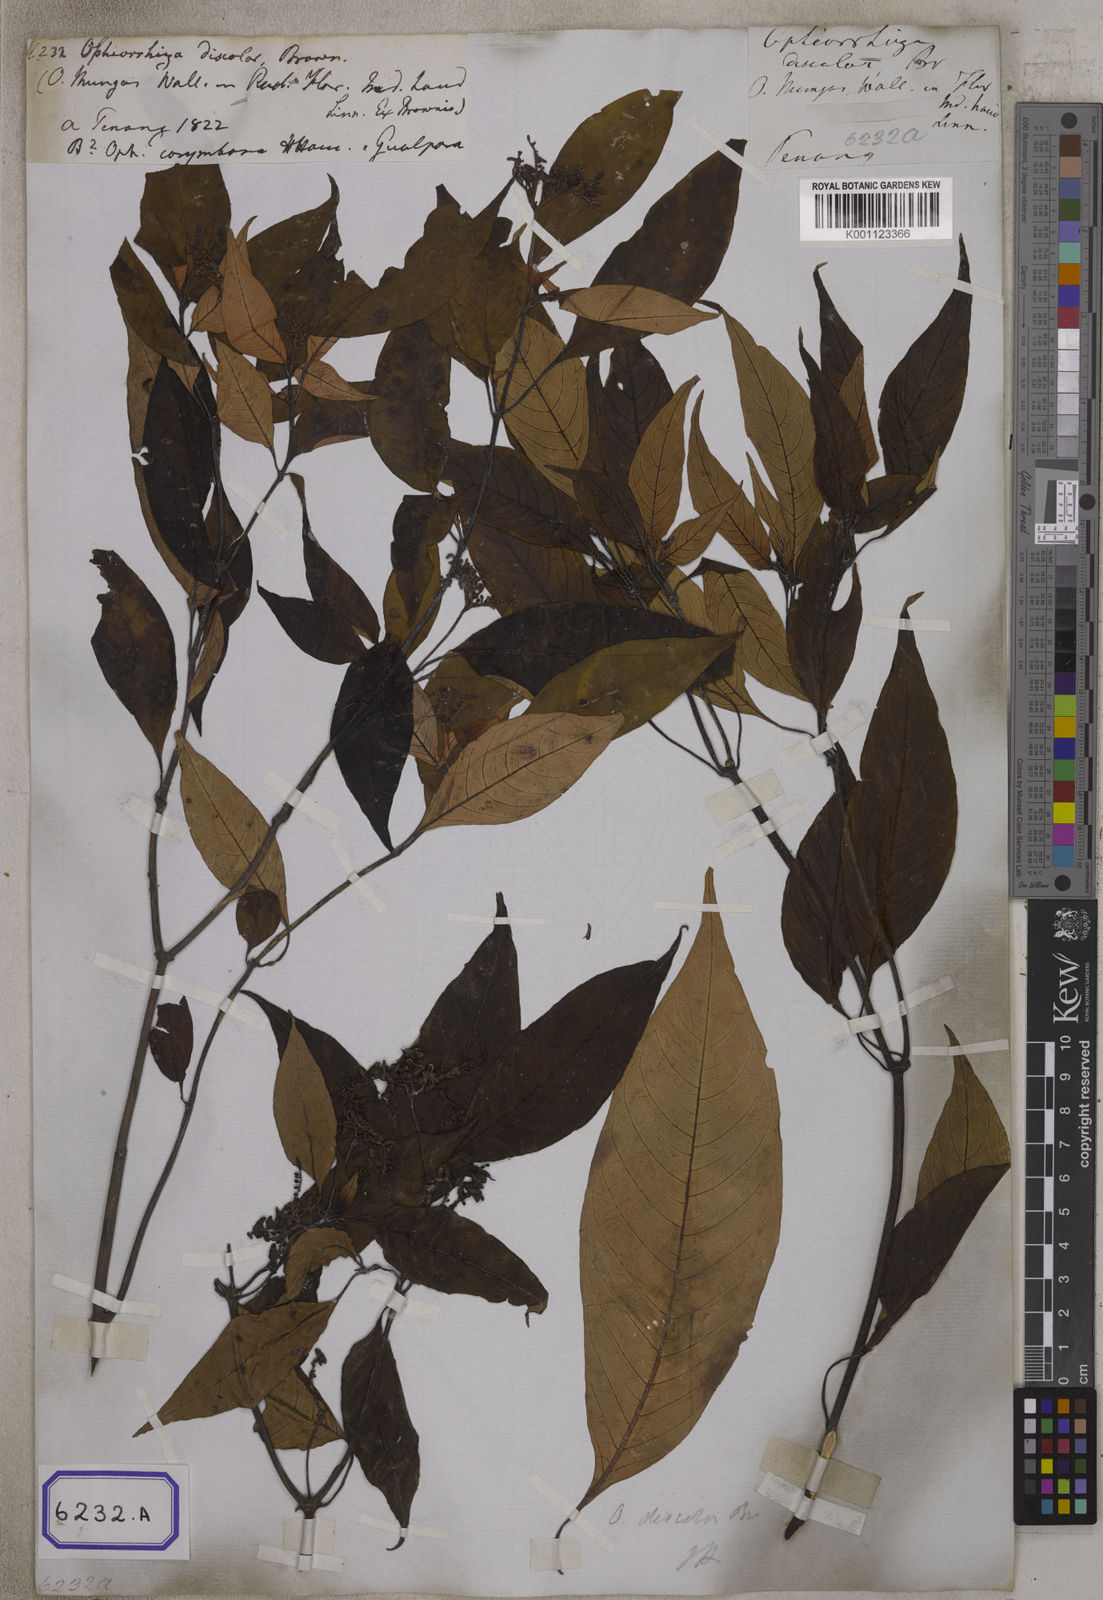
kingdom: Plantae
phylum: Tracheophyta
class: Magnoliopsida
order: Gentianales
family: Rubiaceae
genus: Ophiorrhiza
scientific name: Ophiorrhiza
